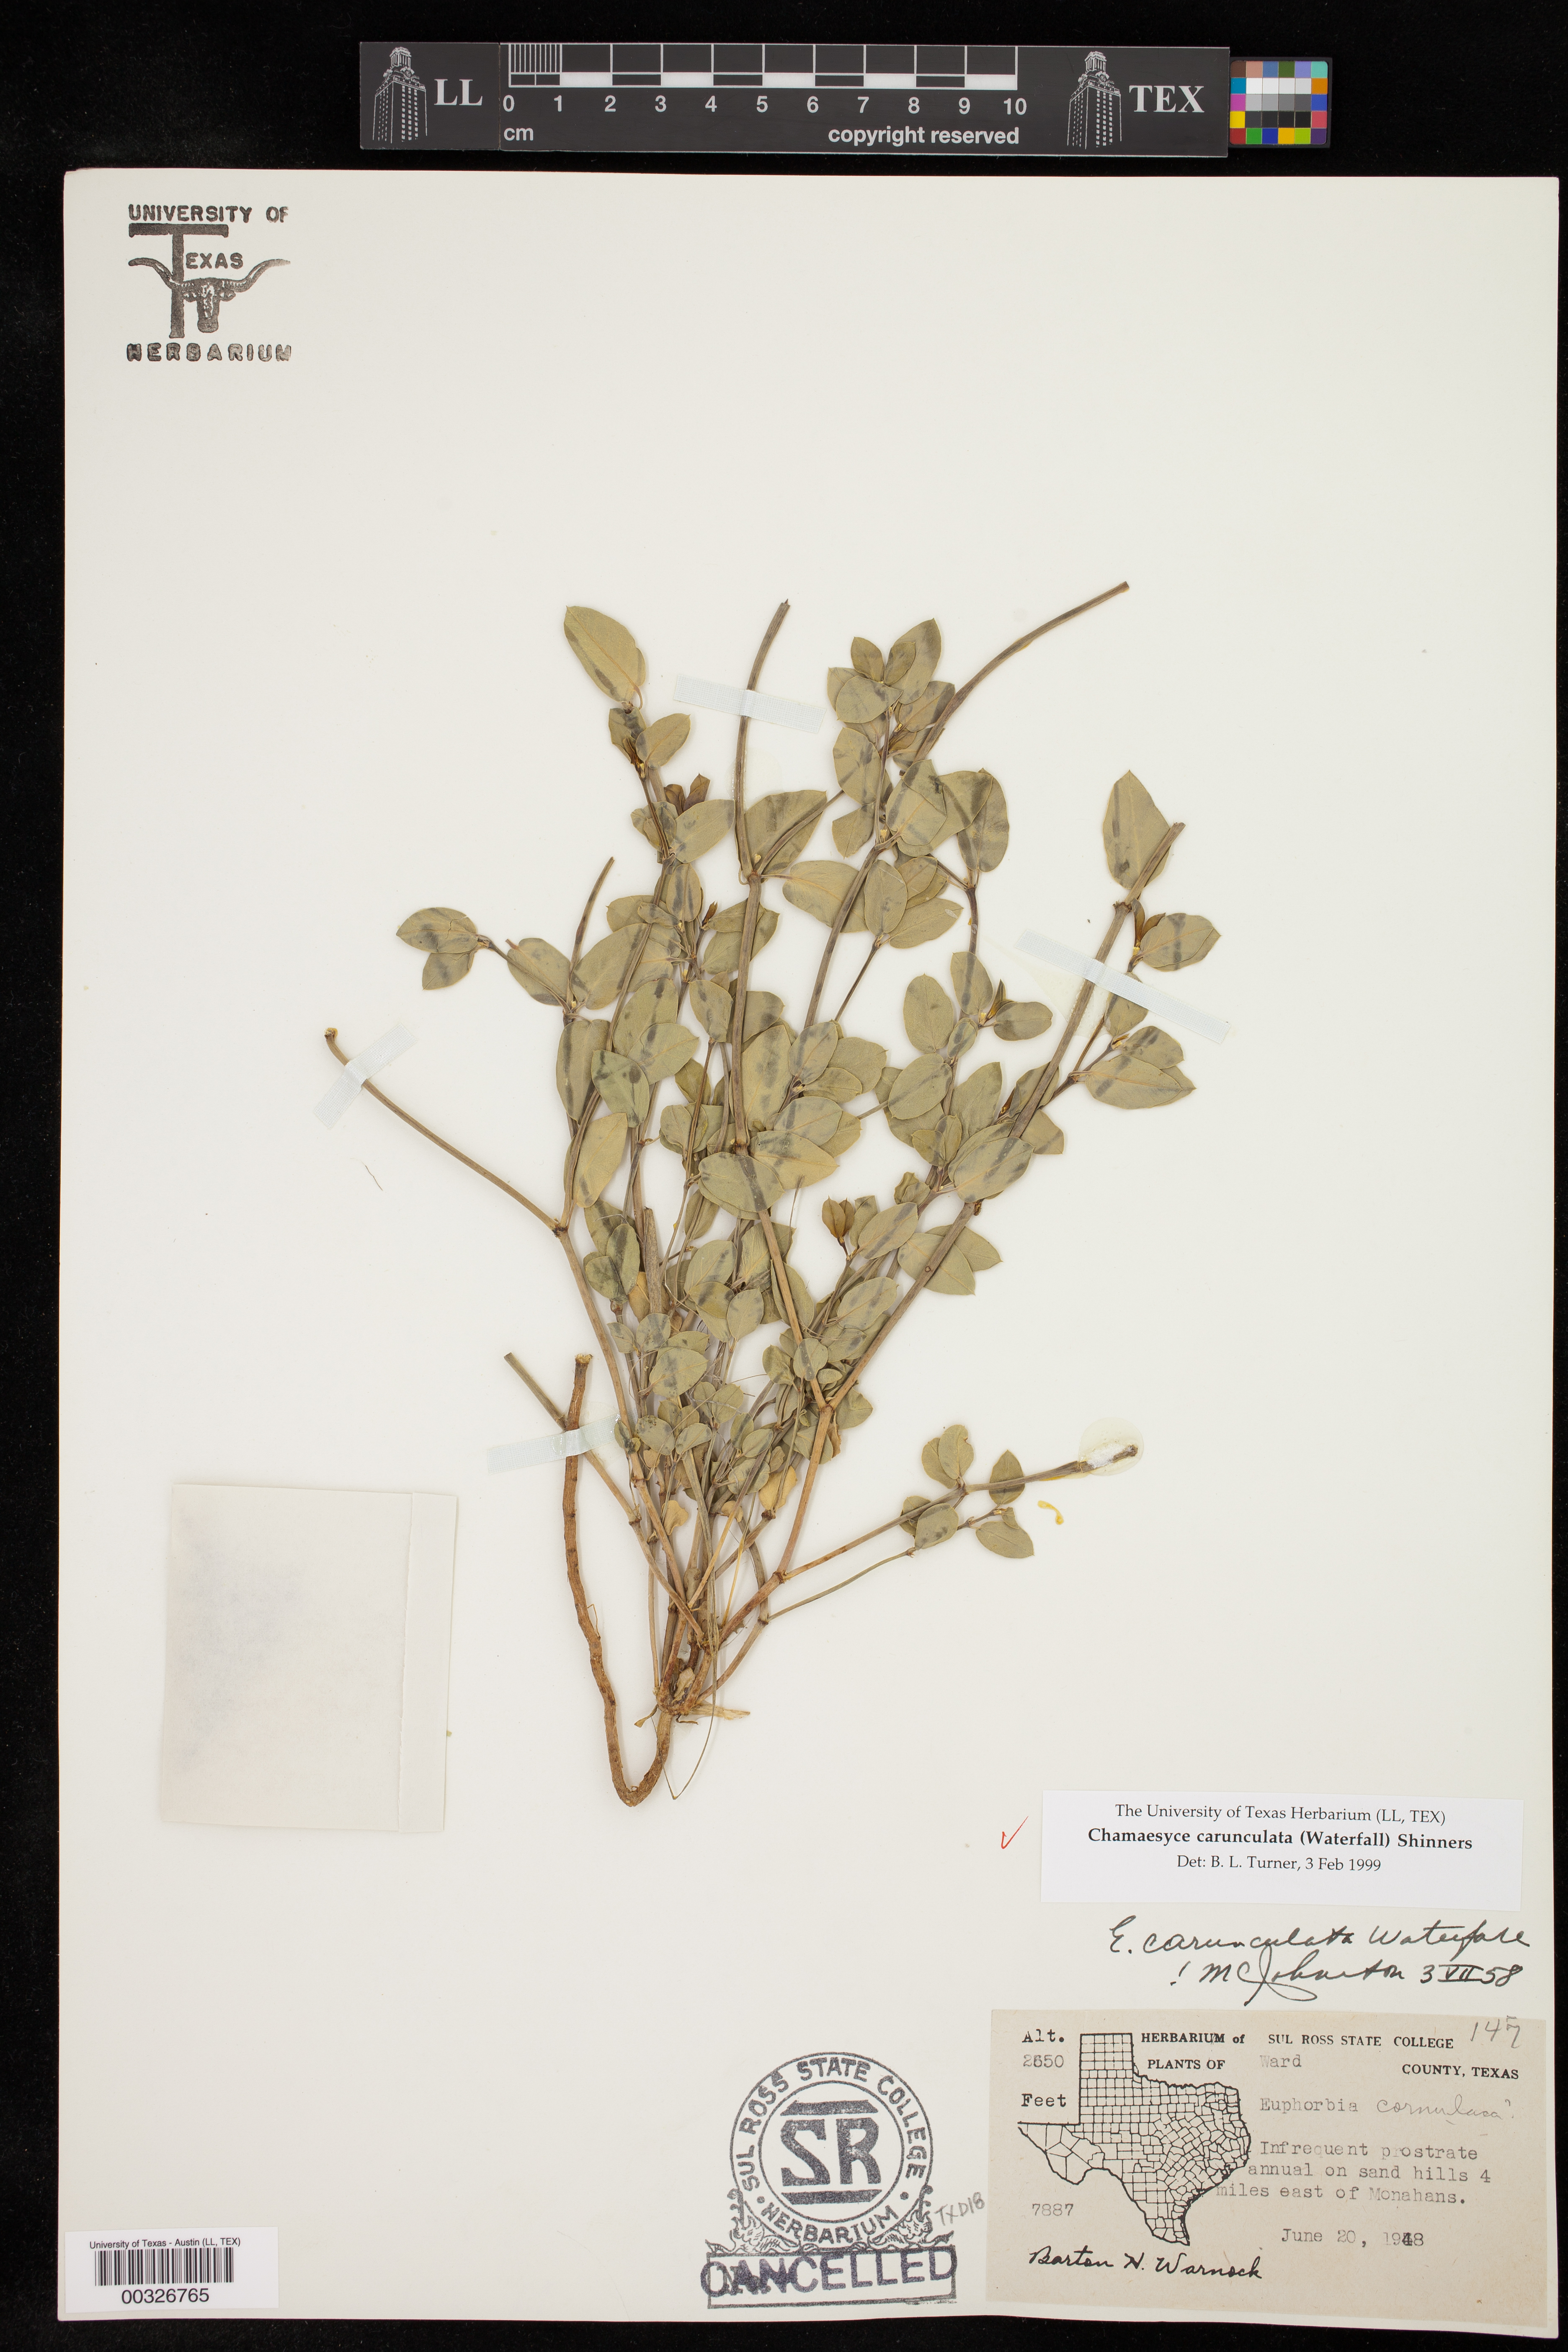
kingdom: Plantae
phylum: Tracheophyta
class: Magnoliopsida
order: Malpighiales
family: Euphorbiaceae
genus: Euphorbia
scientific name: Euphorbia carunculata
